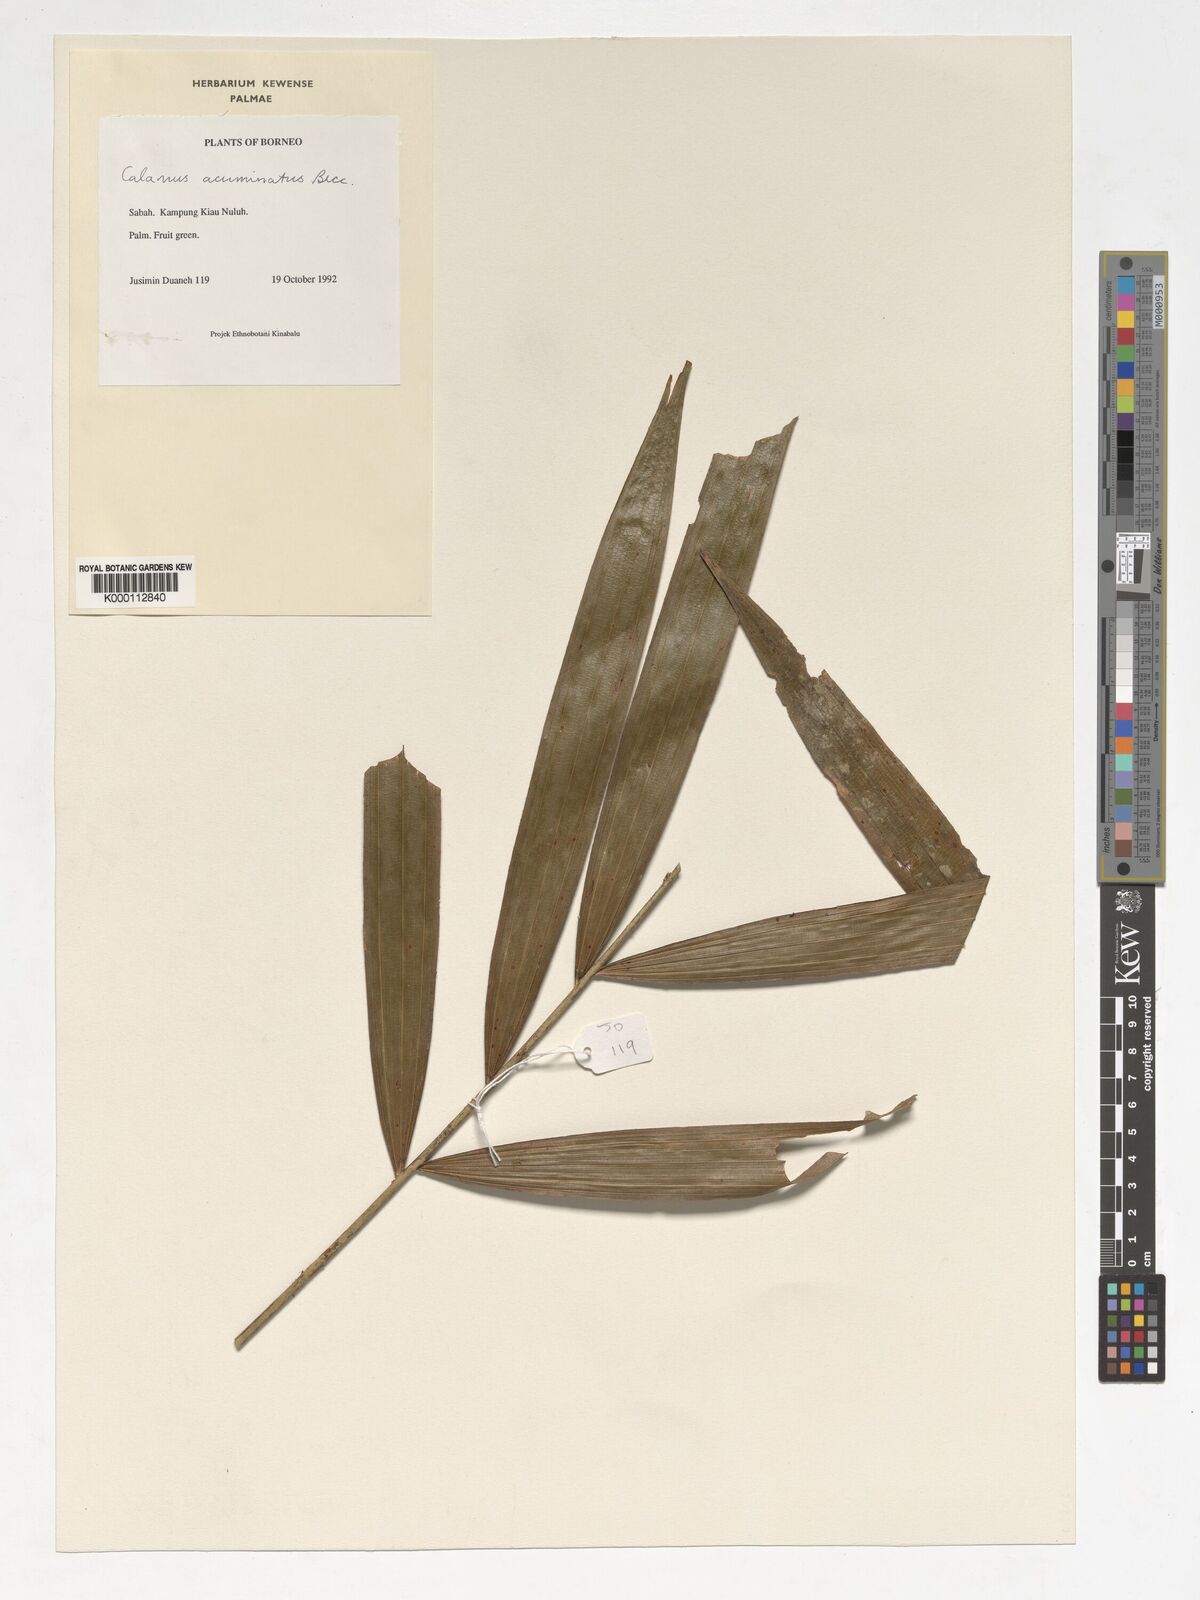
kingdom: Plantae
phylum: Tracheophyta
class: Liliopsida
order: Arecales
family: Arecaceae
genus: Calamus
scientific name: Calamus javensis
